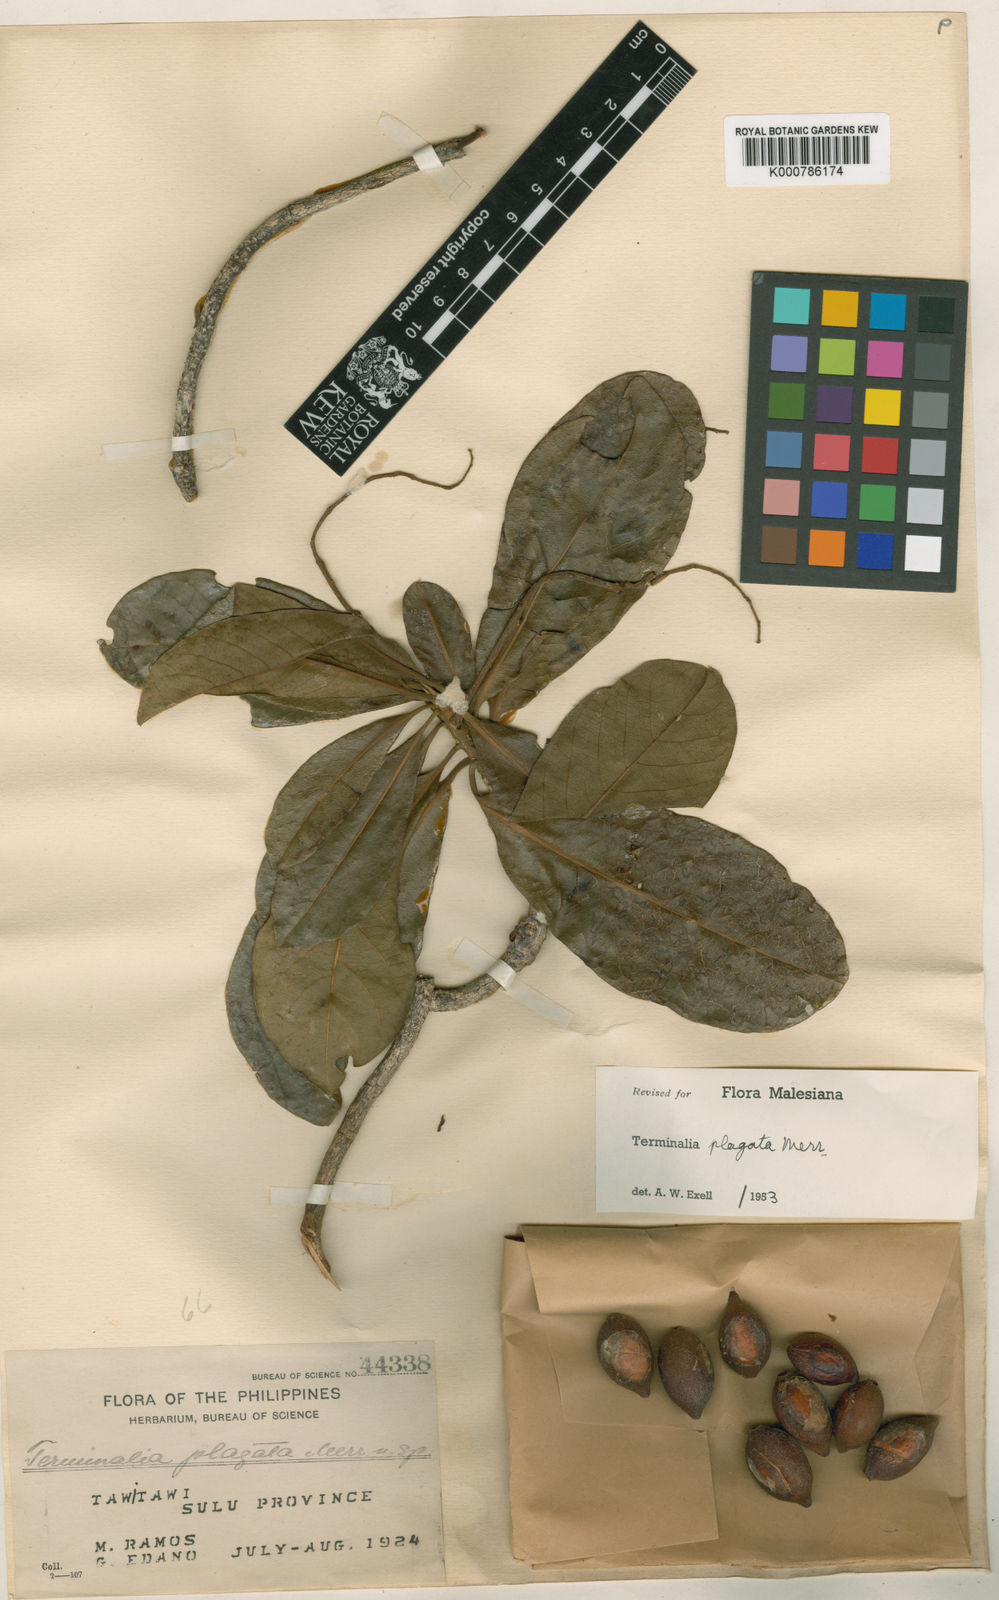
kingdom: Plantae
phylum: Tracheophyta
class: Magnoliopsida
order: Myrtales
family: Combretaceae
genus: Terminalia
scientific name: Terminalia plagata
